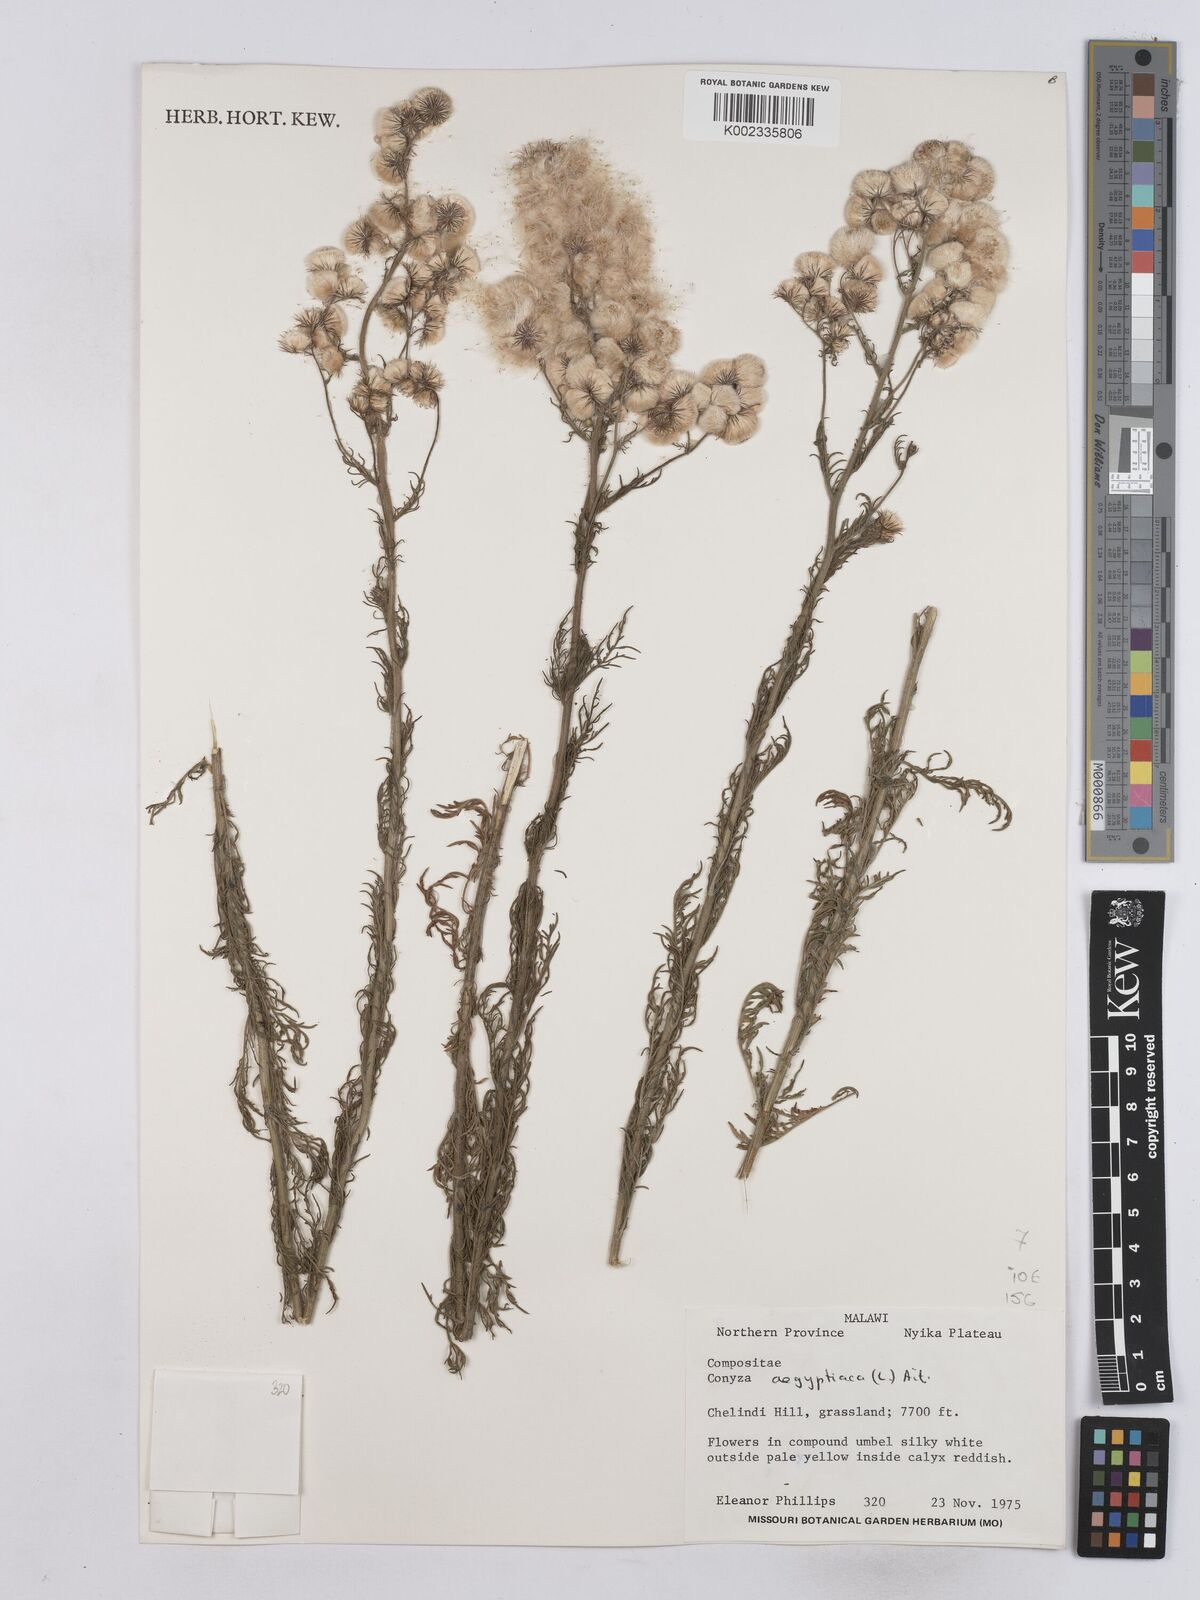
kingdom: Plantae
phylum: Tracheophyta
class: Magnoliopsida
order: Asterales
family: Asteraceae
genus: Nidorella
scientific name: Nidorella aegyptiaca
